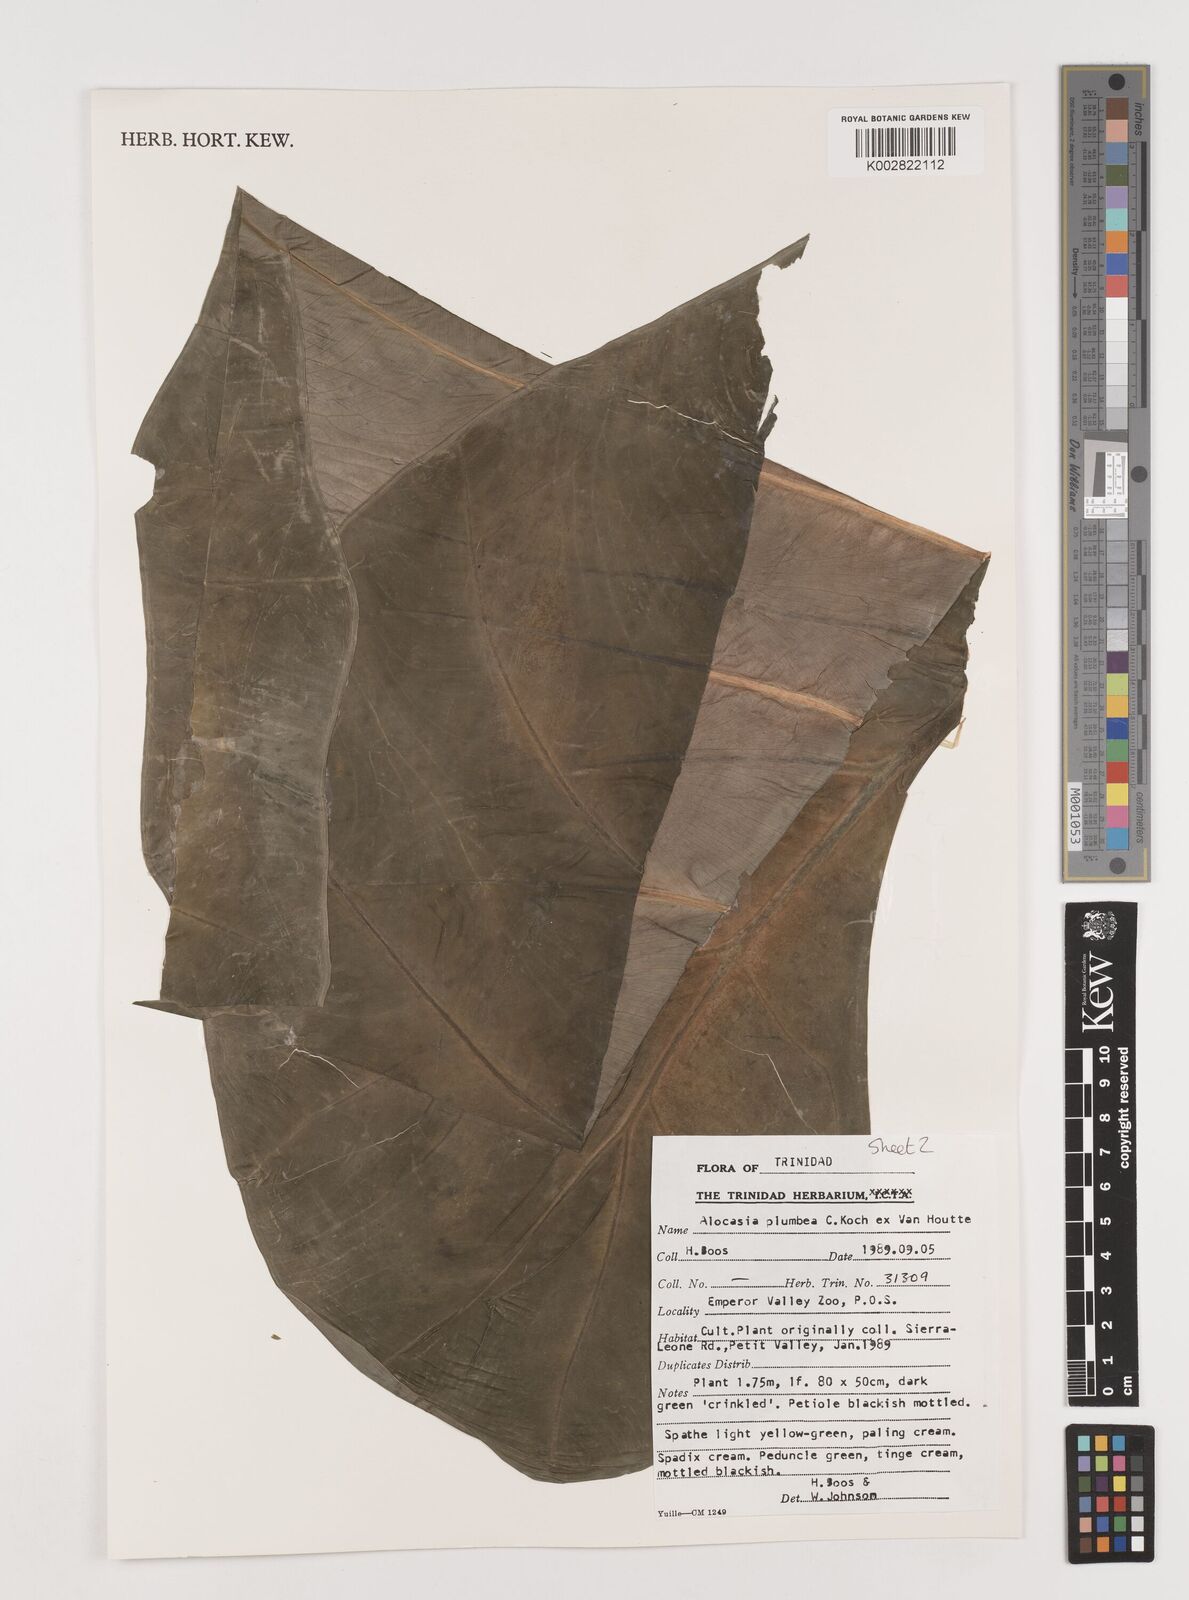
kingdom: Plantae
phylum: Tracheophyta
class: Liliopsida
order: Alismatales
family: Araceae
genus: Alocasia
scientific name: Alocasia macrorrhizos
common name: Giant taro
